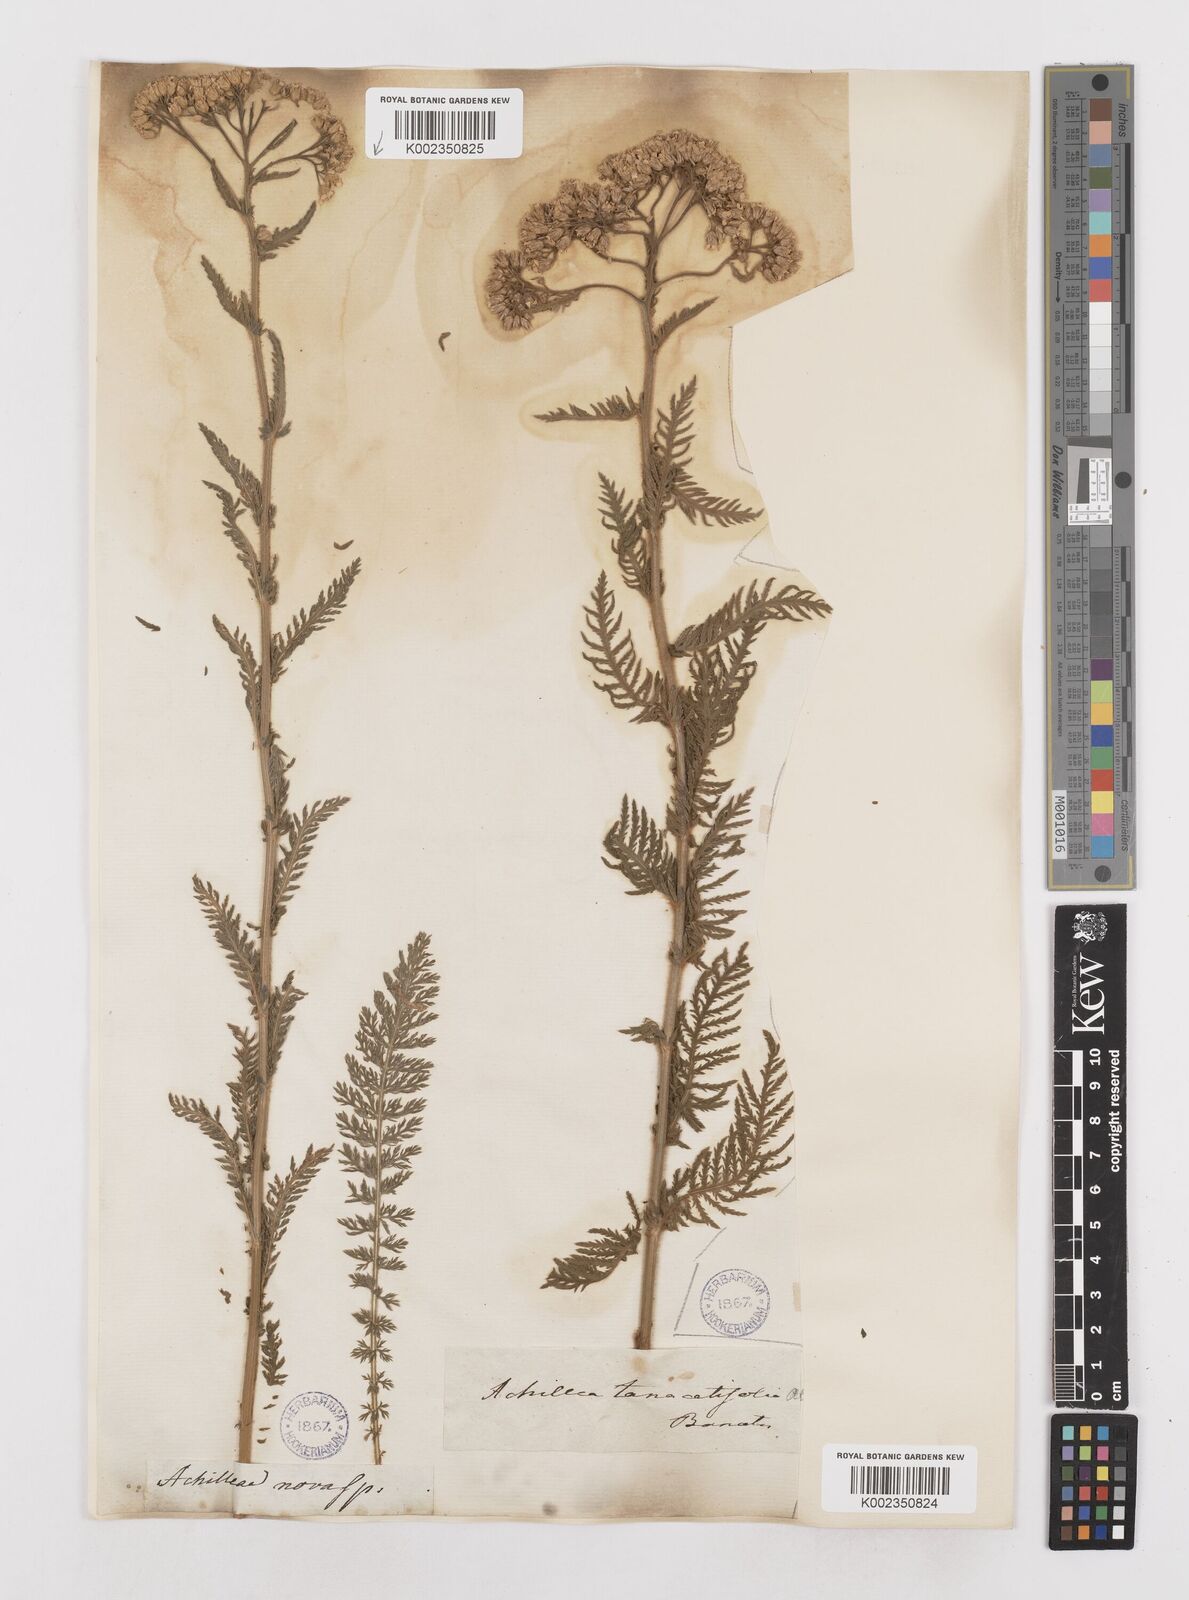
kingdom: Plantae
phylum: Tracheophyta
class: Magnoliopsida
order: Asterales
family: Asteraceae
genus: Achillea
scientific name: Achillea distans
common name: Tall yarrow
